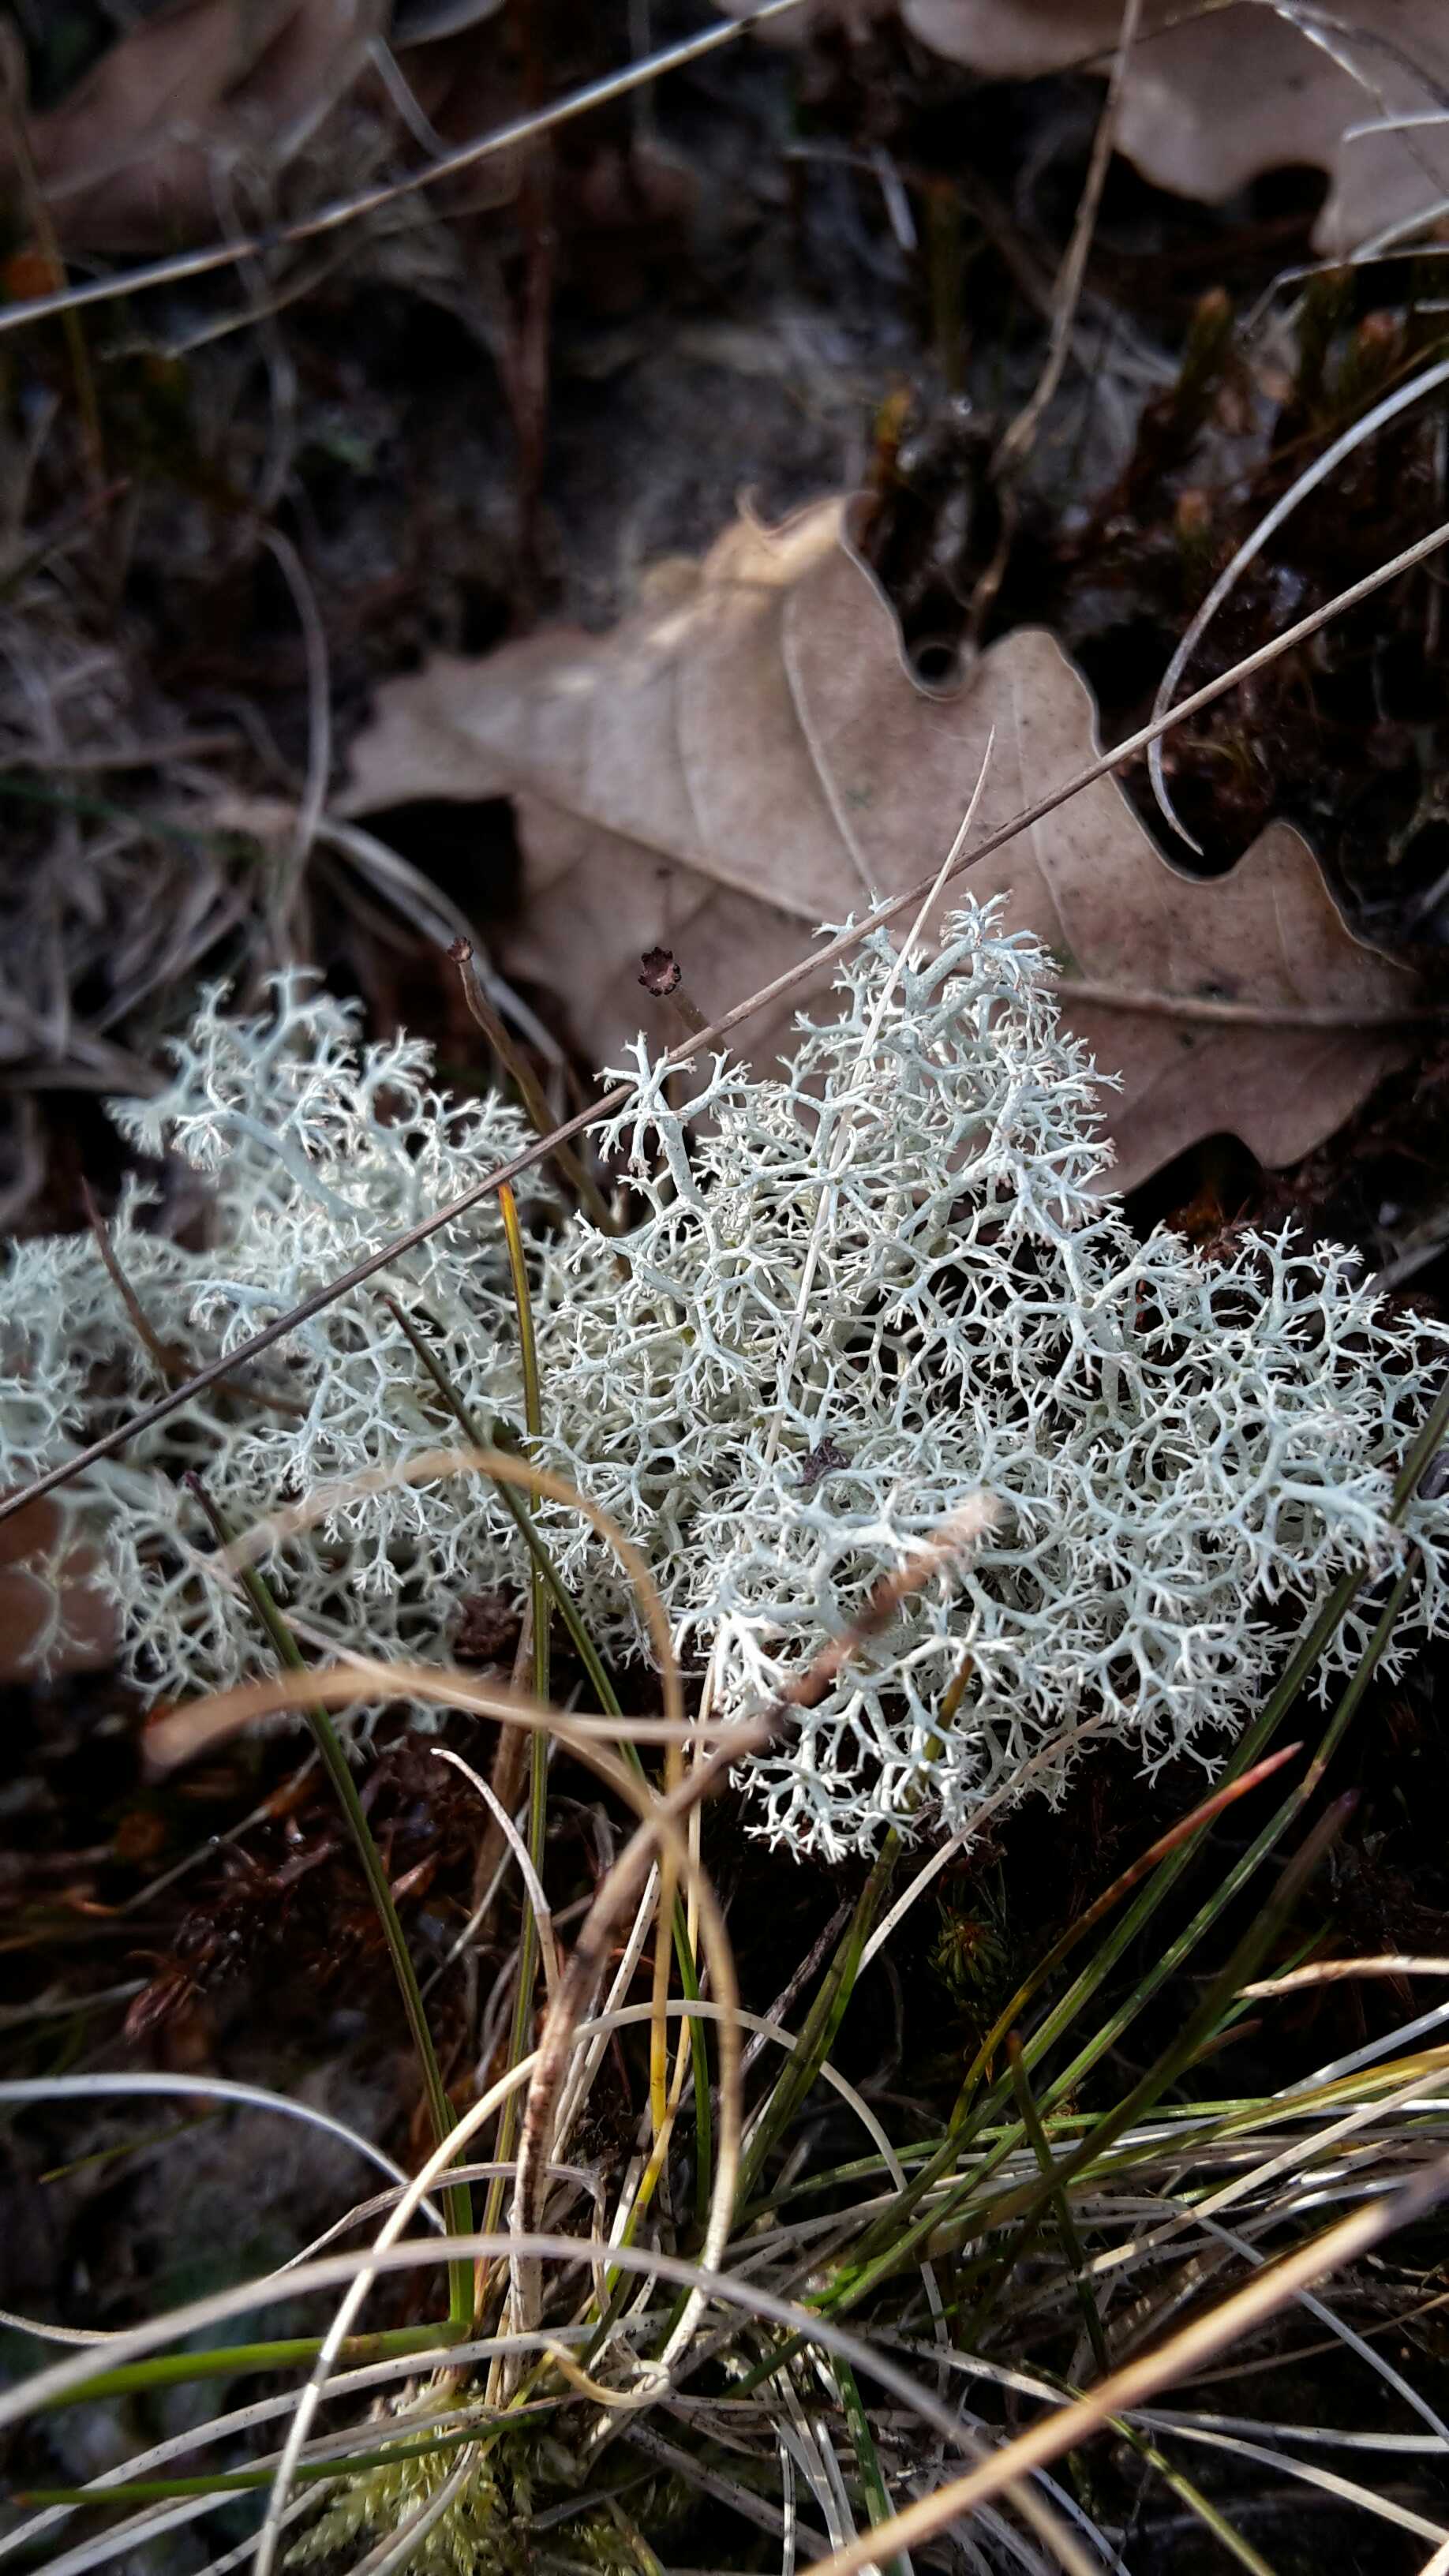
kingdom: Fungi
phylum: Ascomycota
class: Lecanoromycetes
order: Lecanorales
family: Cladoniaceae
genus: Cladonia
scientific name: Cladonia portentosa
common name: hede-rensdyrlav
